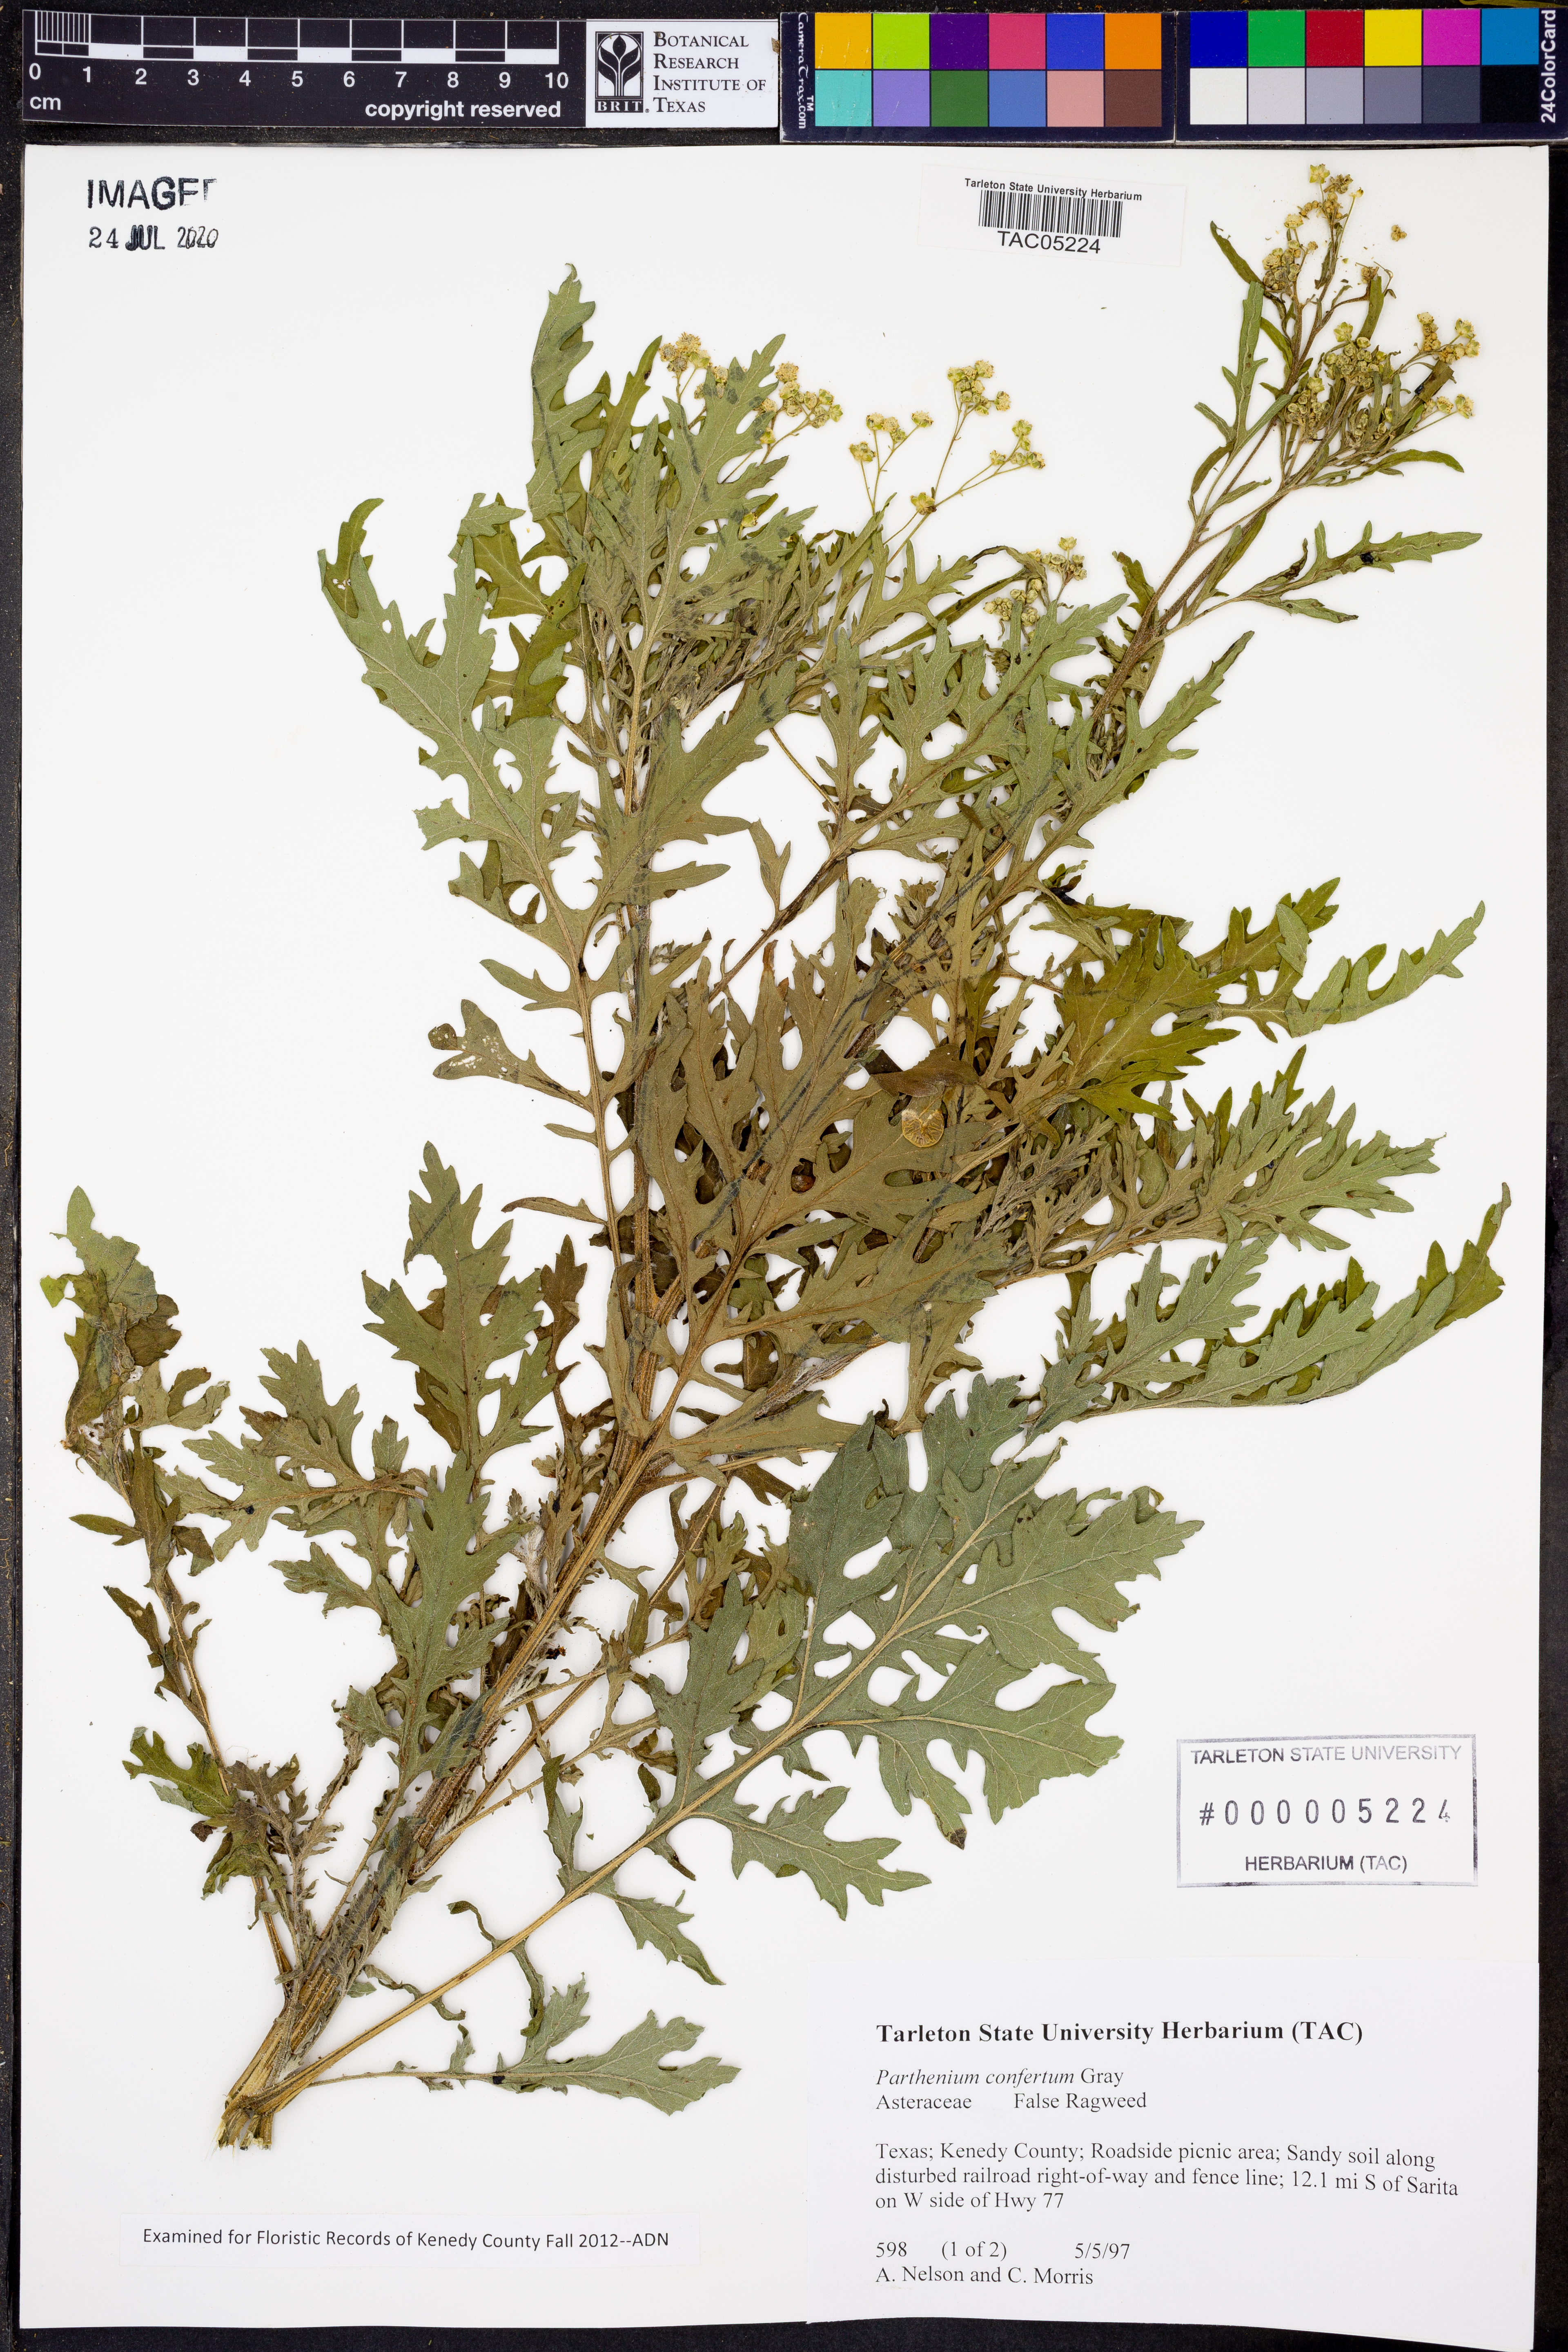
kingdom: Plantae
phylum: Tracheophyta
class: Magnoliopsida
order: Asterales
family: Asteraceae
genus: Parthenium
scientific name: Parthenium confertum
